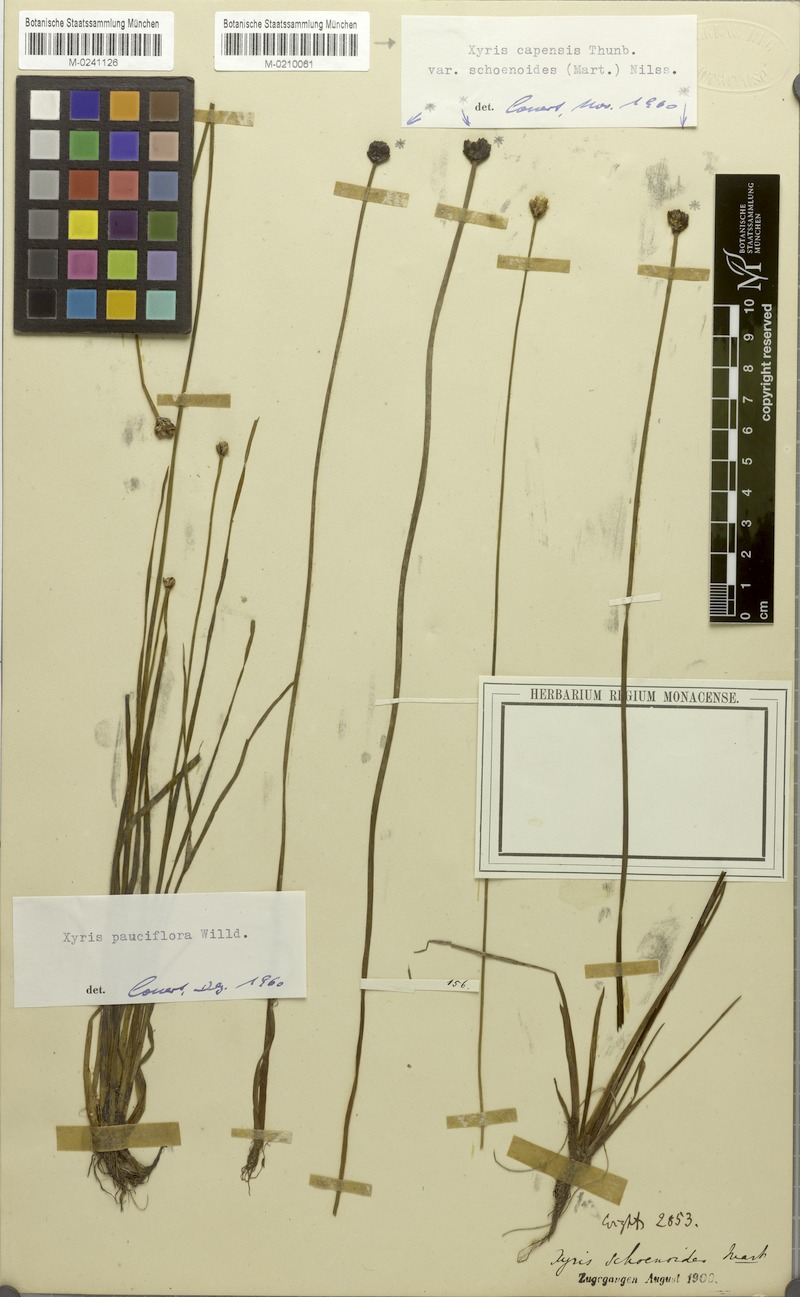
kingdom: Plantae
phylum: Tracheophyta
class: Liliopsida
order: Poales
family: Xyridaceae
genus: Xyris
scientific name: Xyris capensis
